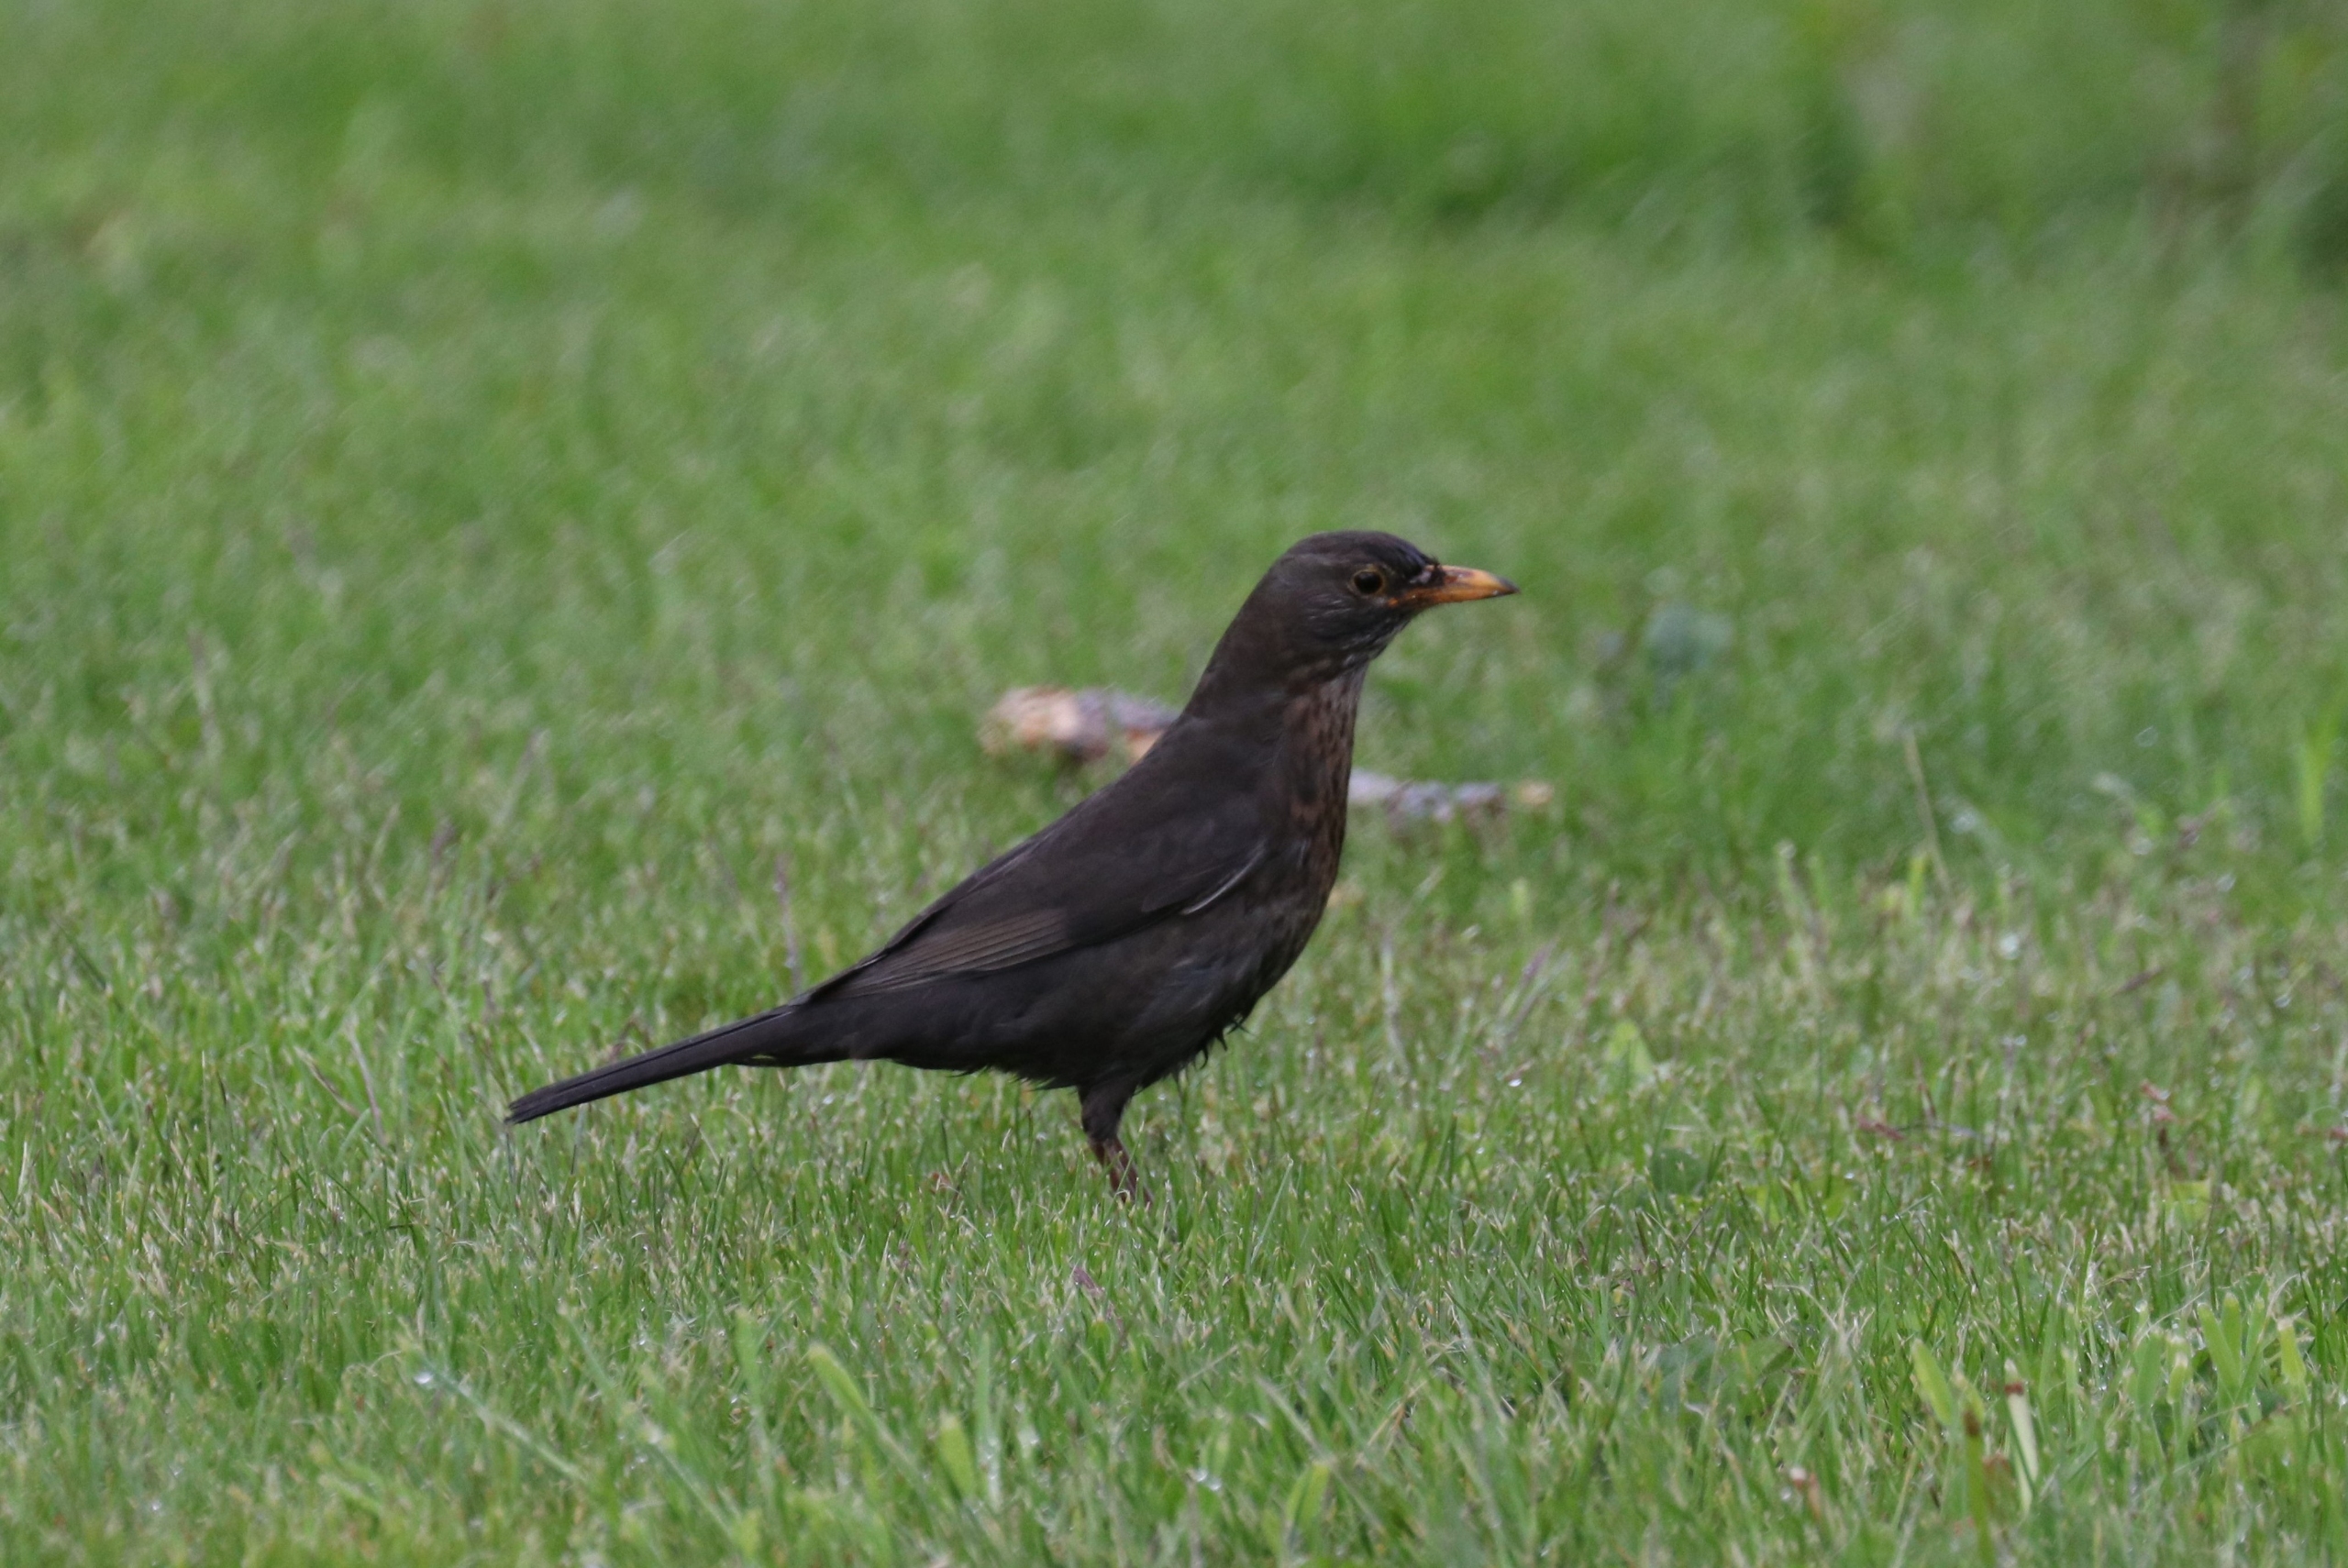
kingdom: Animalia
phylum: Chordata
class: Aves
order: Passeriformes
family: Turdidae
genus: Turdus
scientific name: Turdus merula
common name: Solsort
